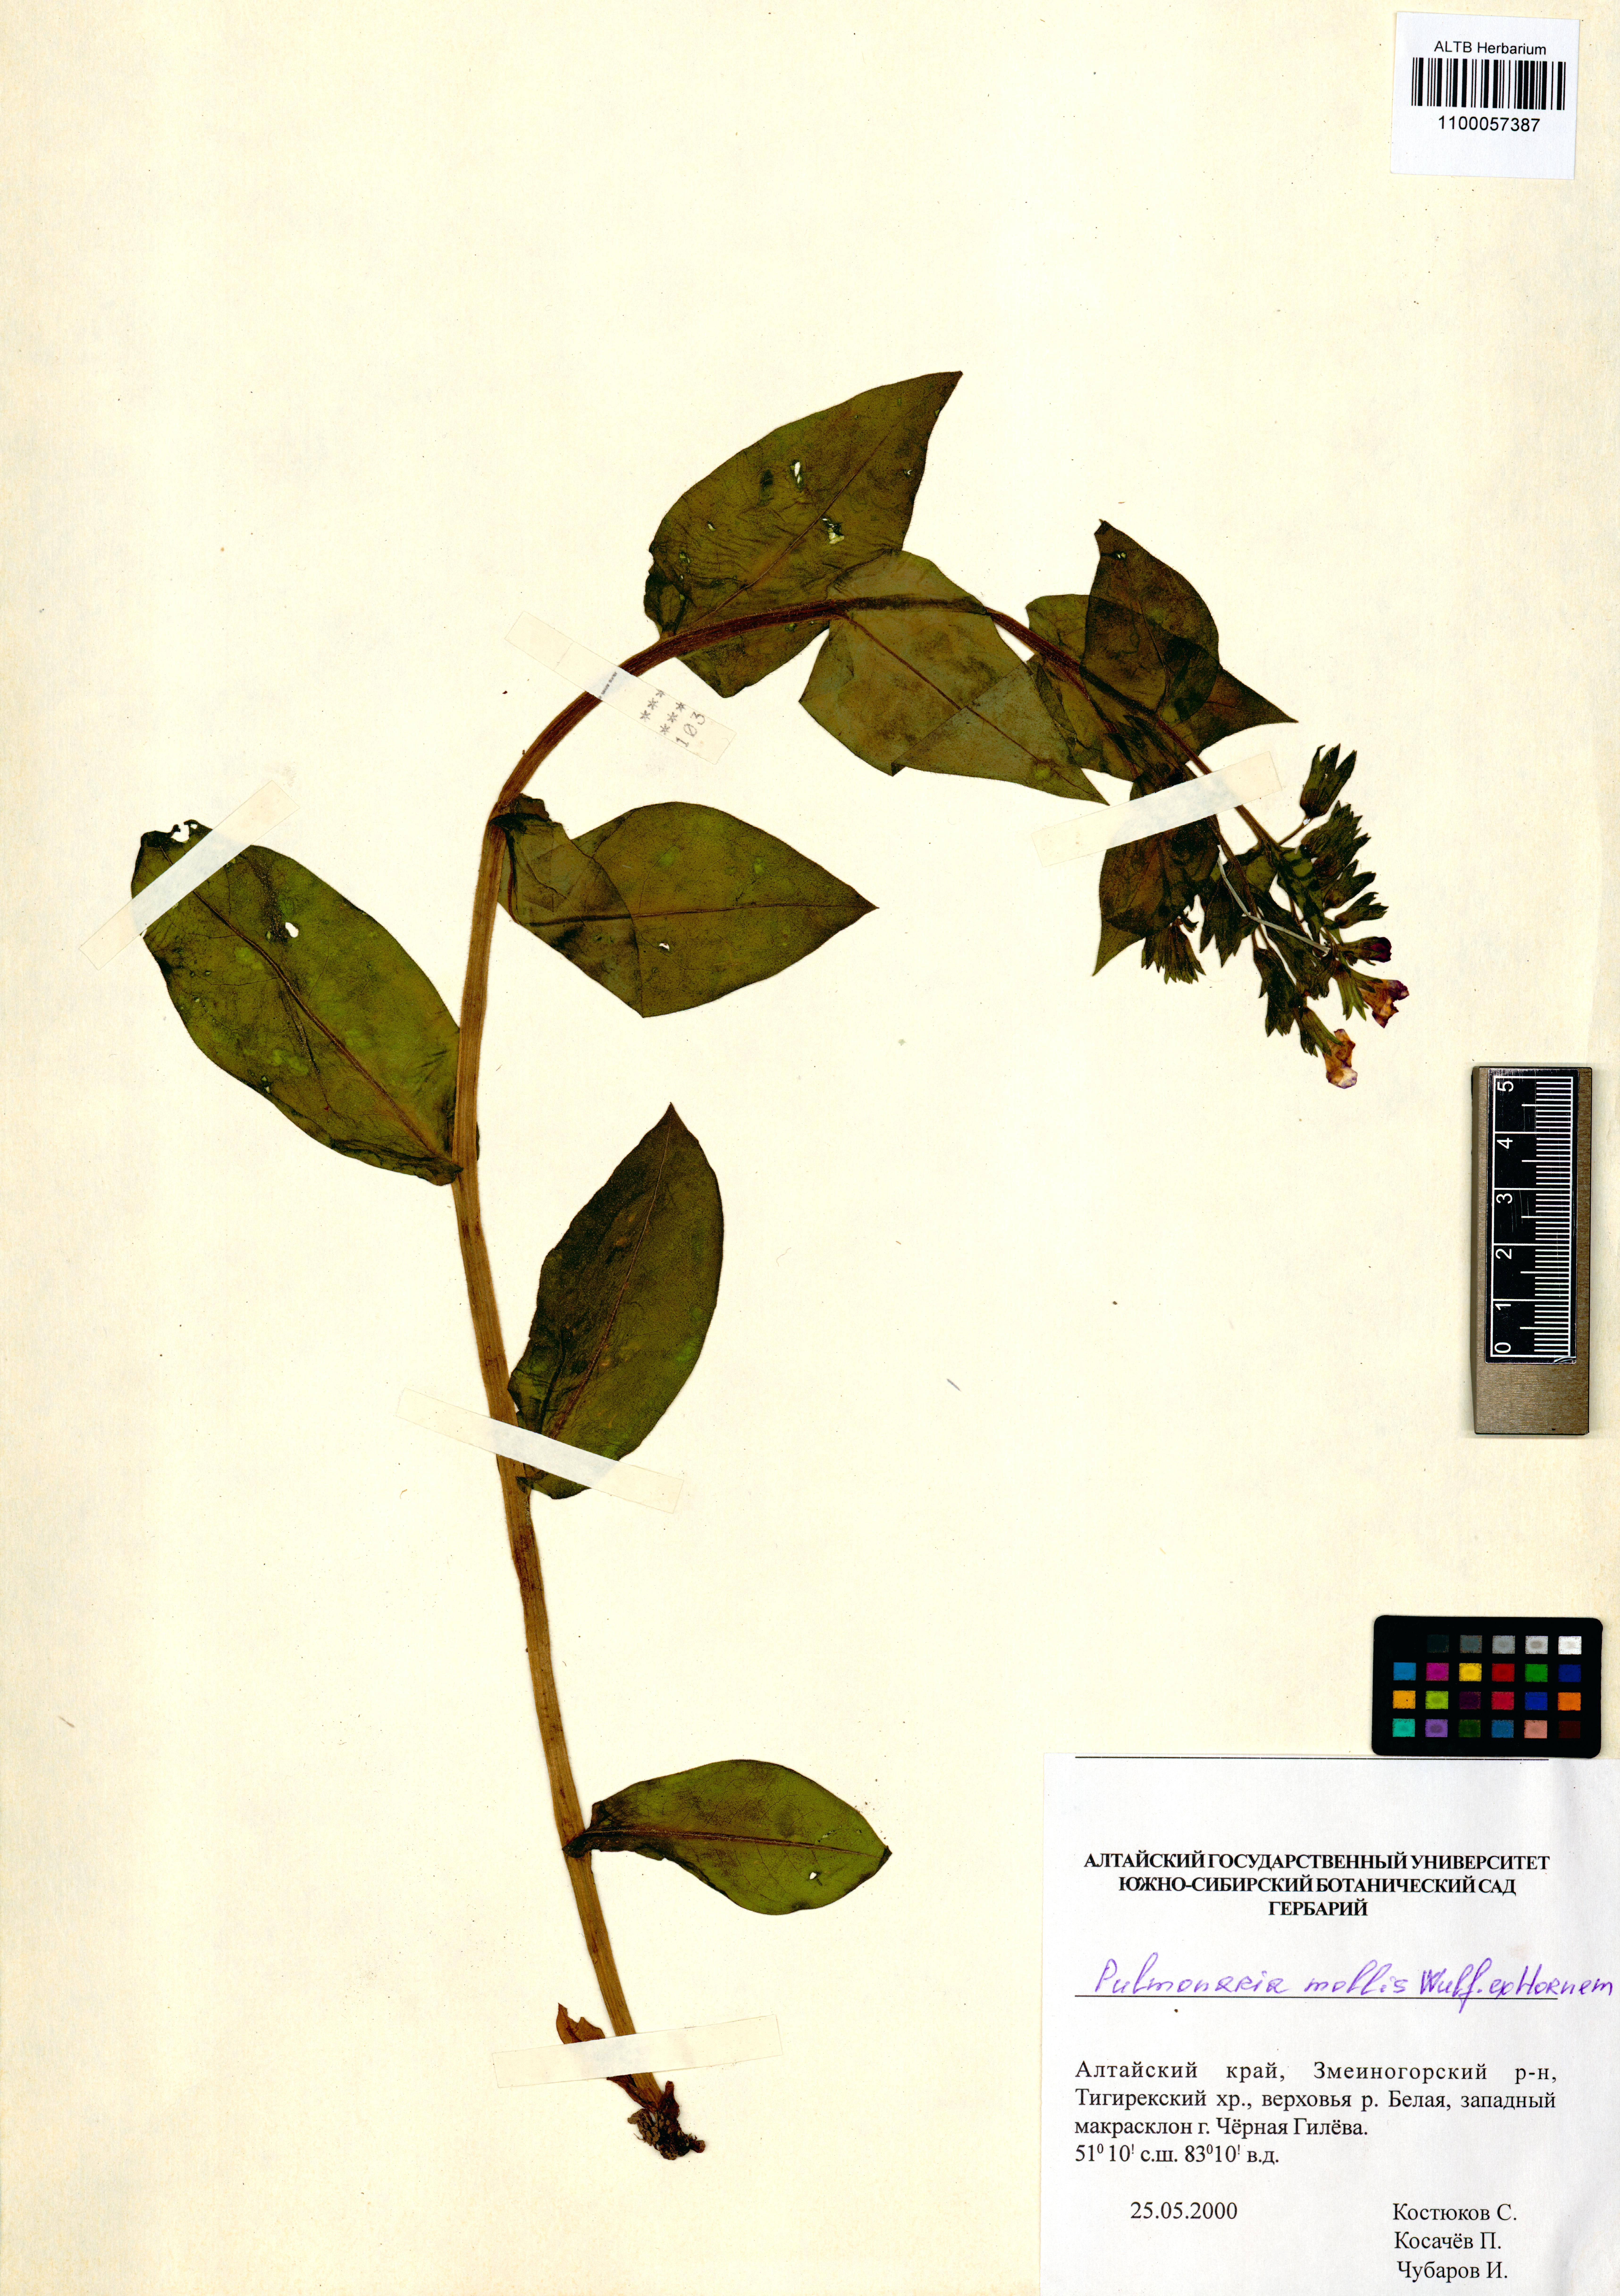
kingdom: Plantae
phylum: Tracheophyta
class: Magnoliopsida
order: Boraginales
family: Boraginaceae
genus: Pulmonaria
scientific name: Pulmonaria mollis
